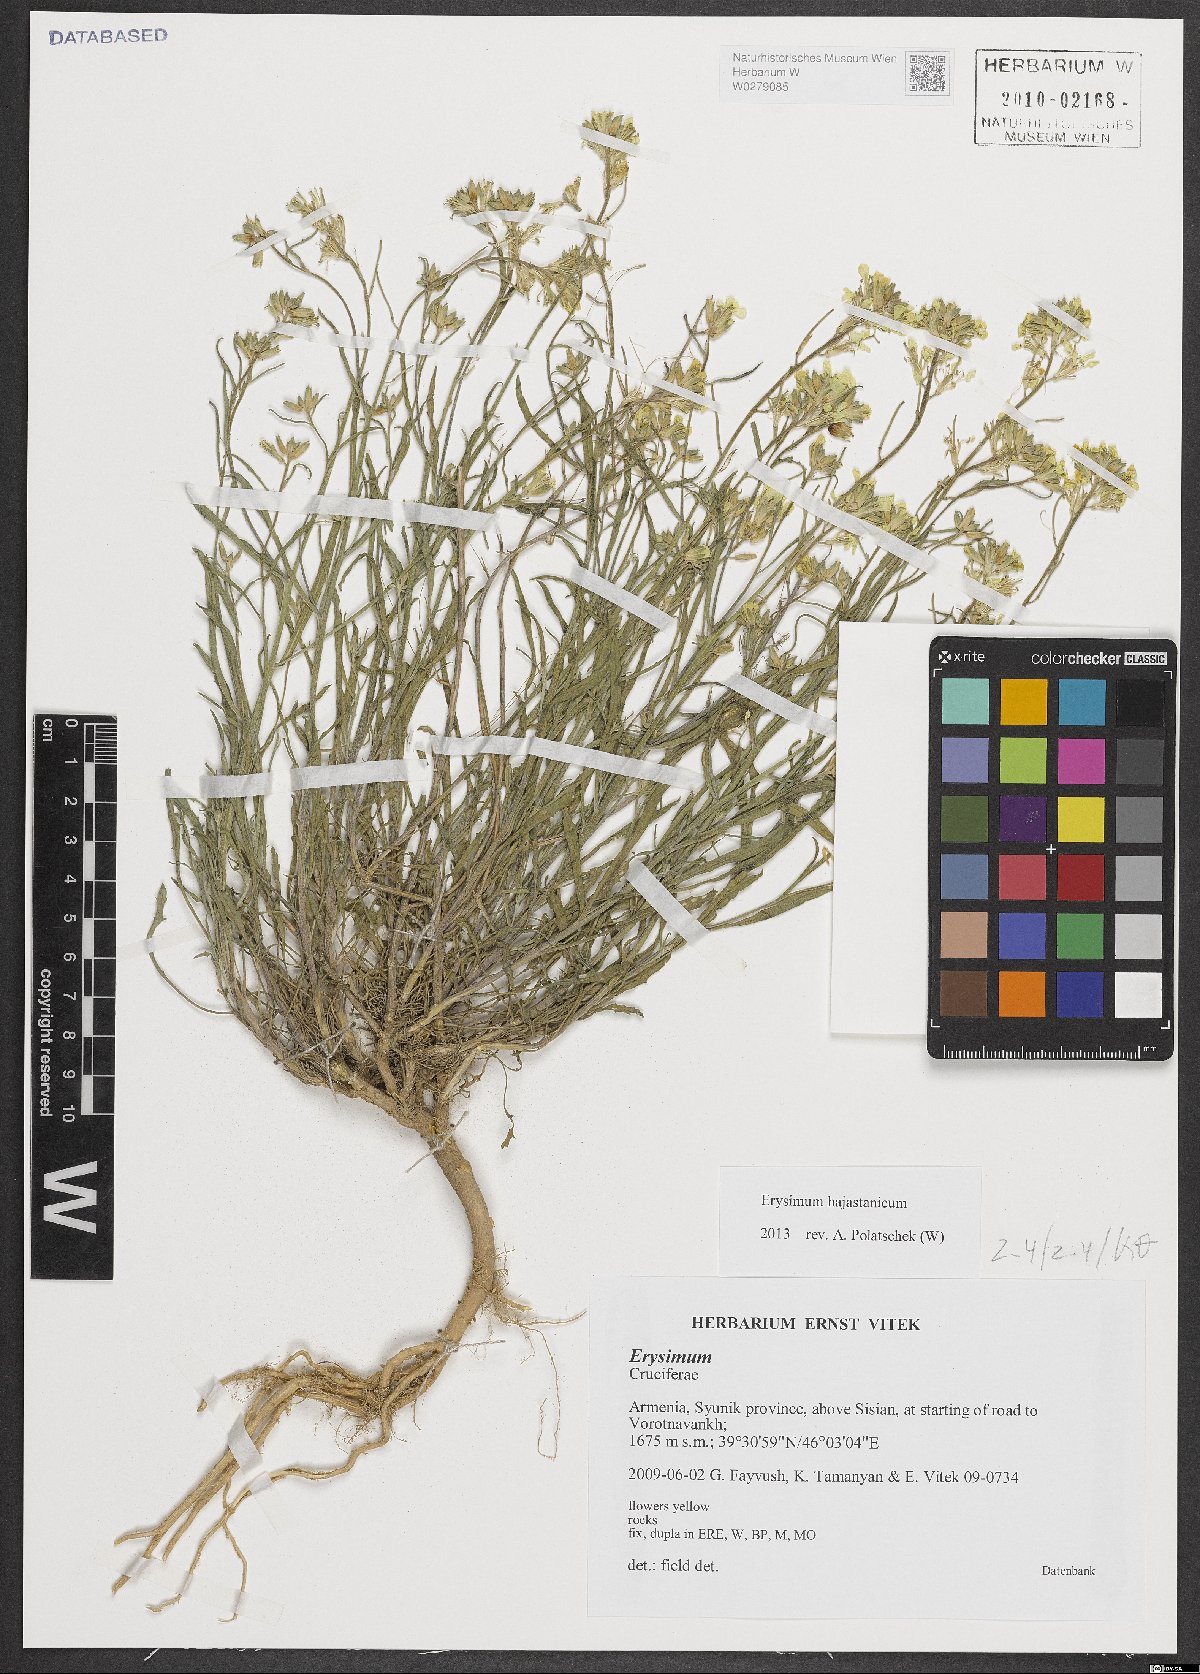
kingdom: Plantae
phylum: Tracheophyta
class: Magnoliopsida
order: Brassicales
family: Brassicaceae
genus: Erysimum
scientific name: Erysimum hajastanicum
